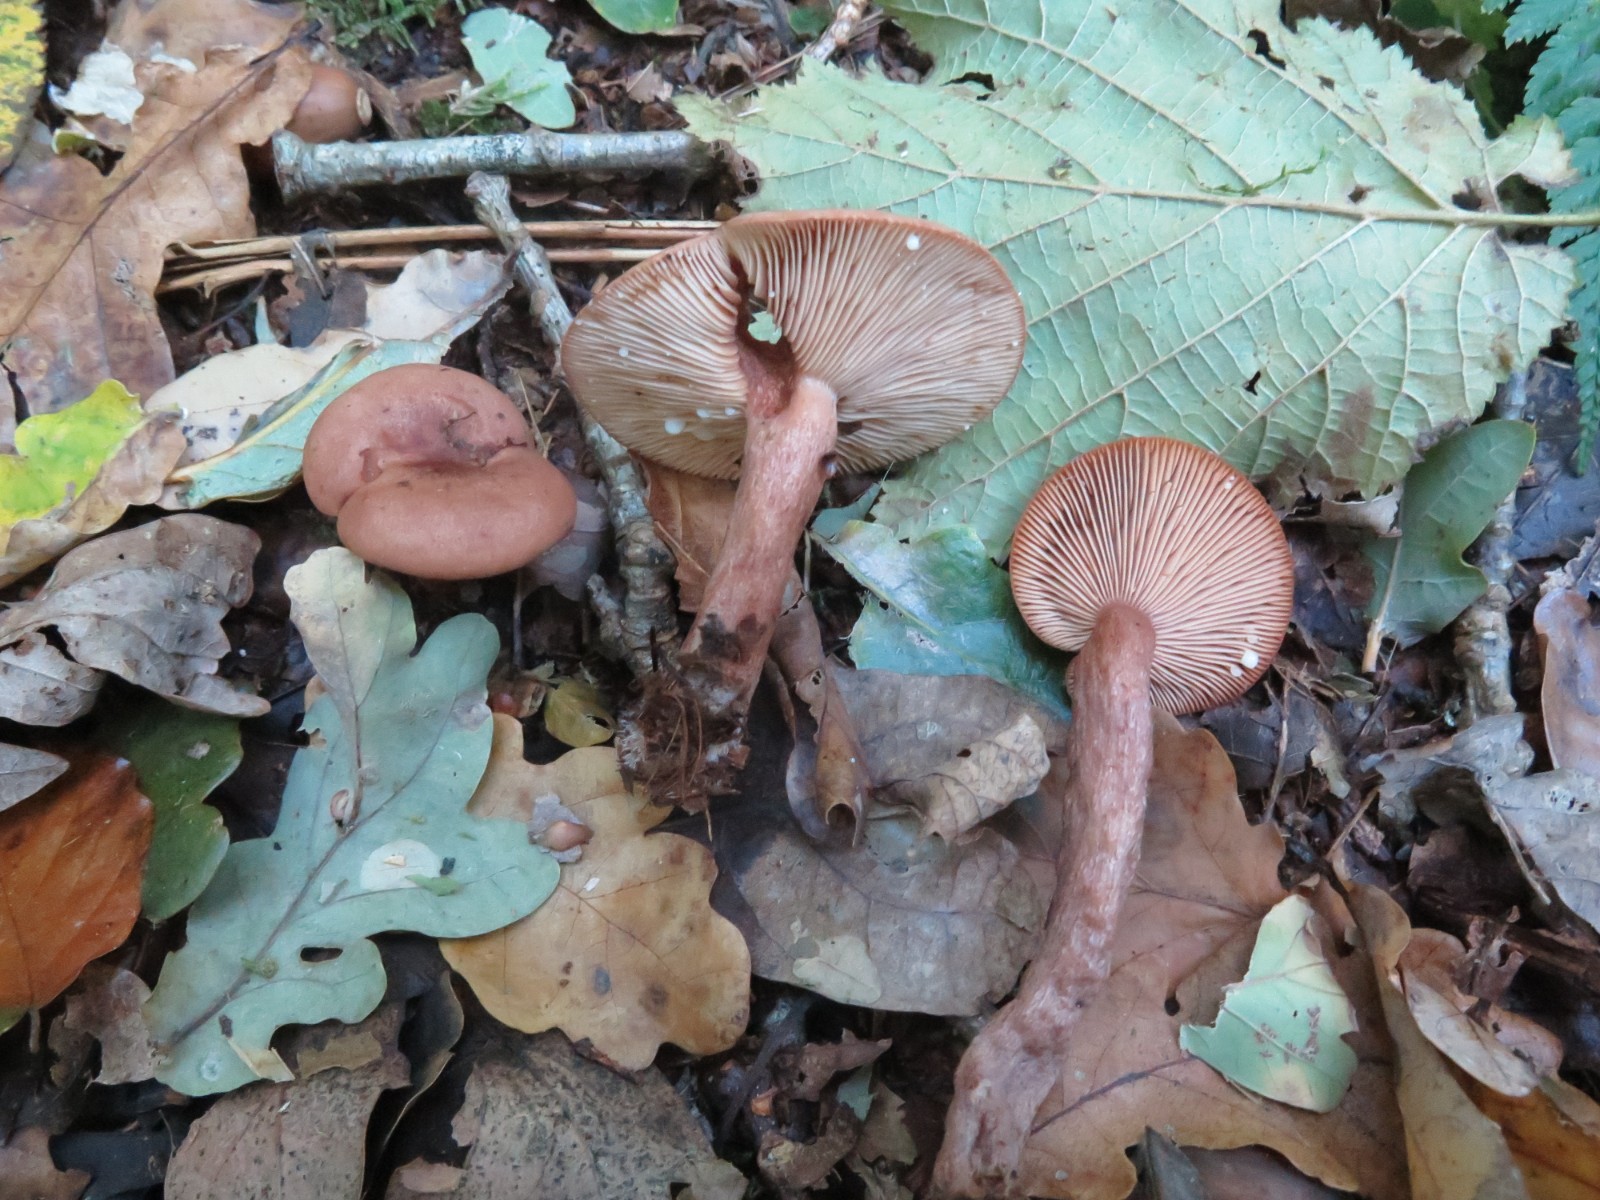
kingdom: Fungi
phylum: Basidiomycota
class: Agaricomycetes
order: Russulales
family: Russulaceae
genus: Lactarius
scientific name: Lactarius camphoratus
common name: kamfer-mælkehat
